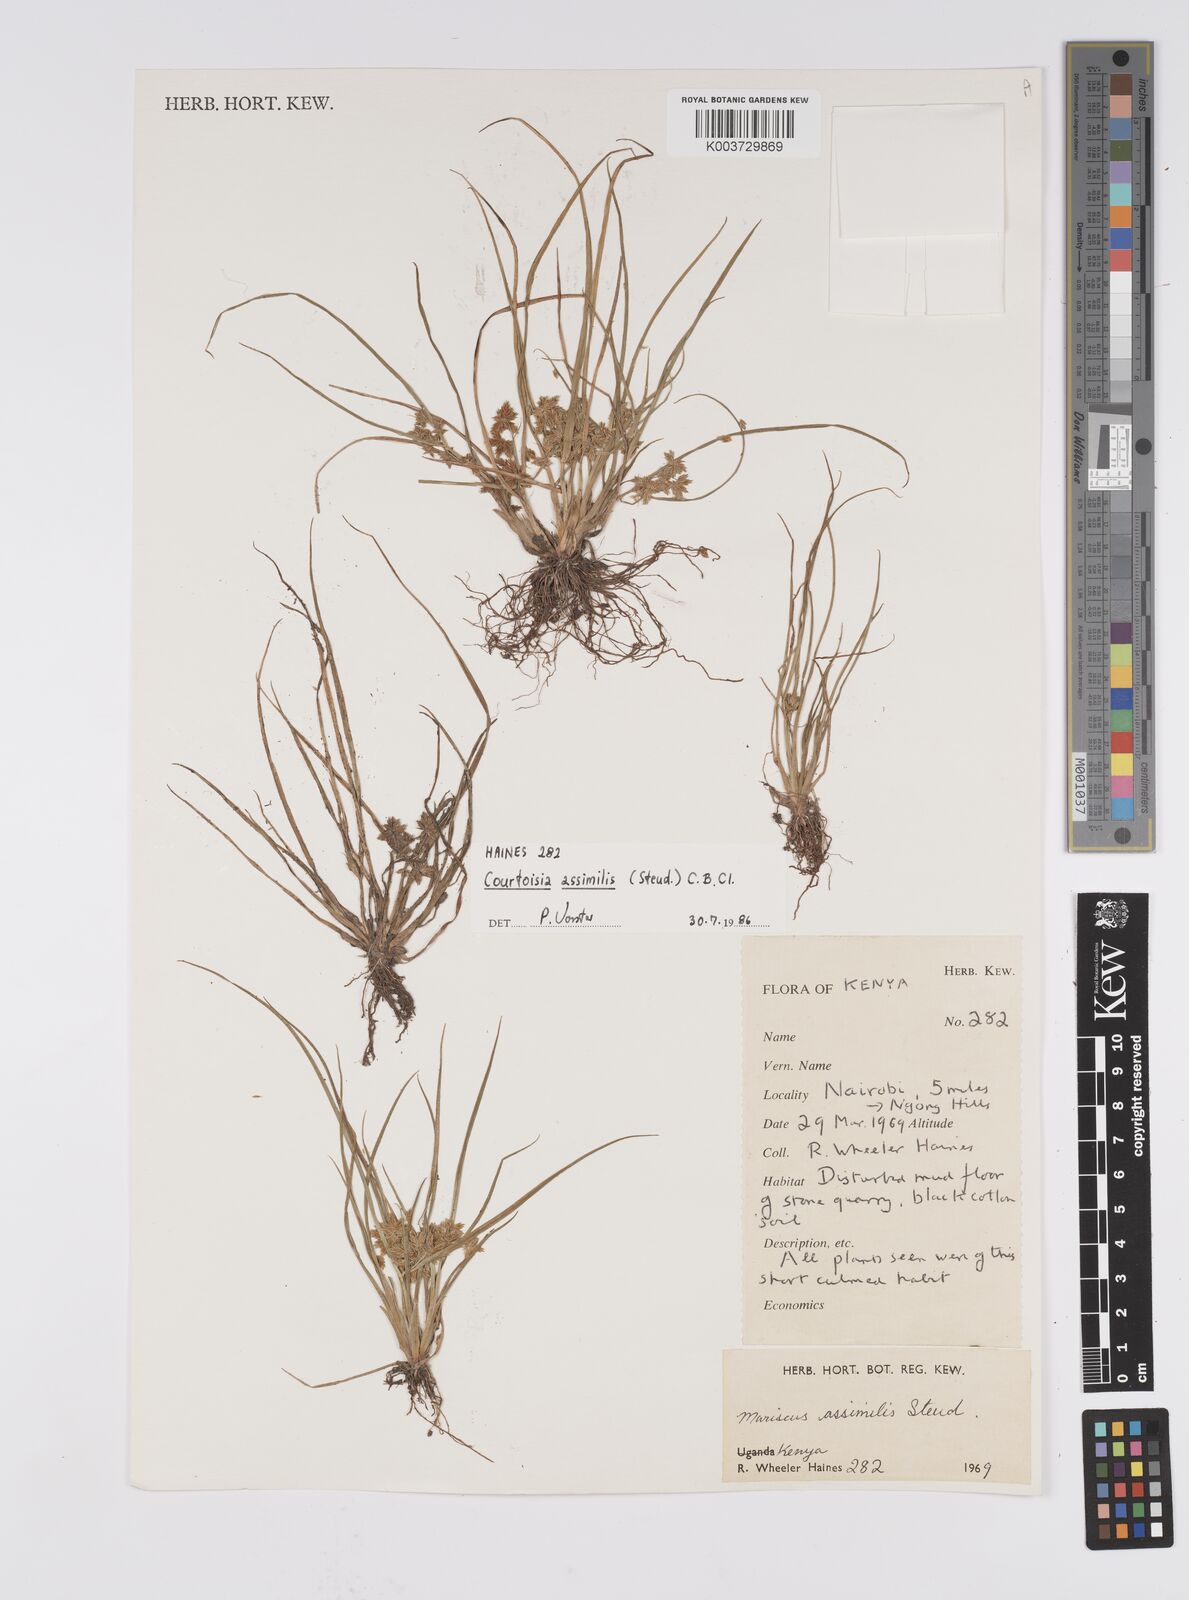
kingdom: Plantae
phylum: Tracheophyta
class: Liliopsida
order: Poales
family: Cyperaceae
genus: Cyperus
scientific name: Cyperus assimilis
